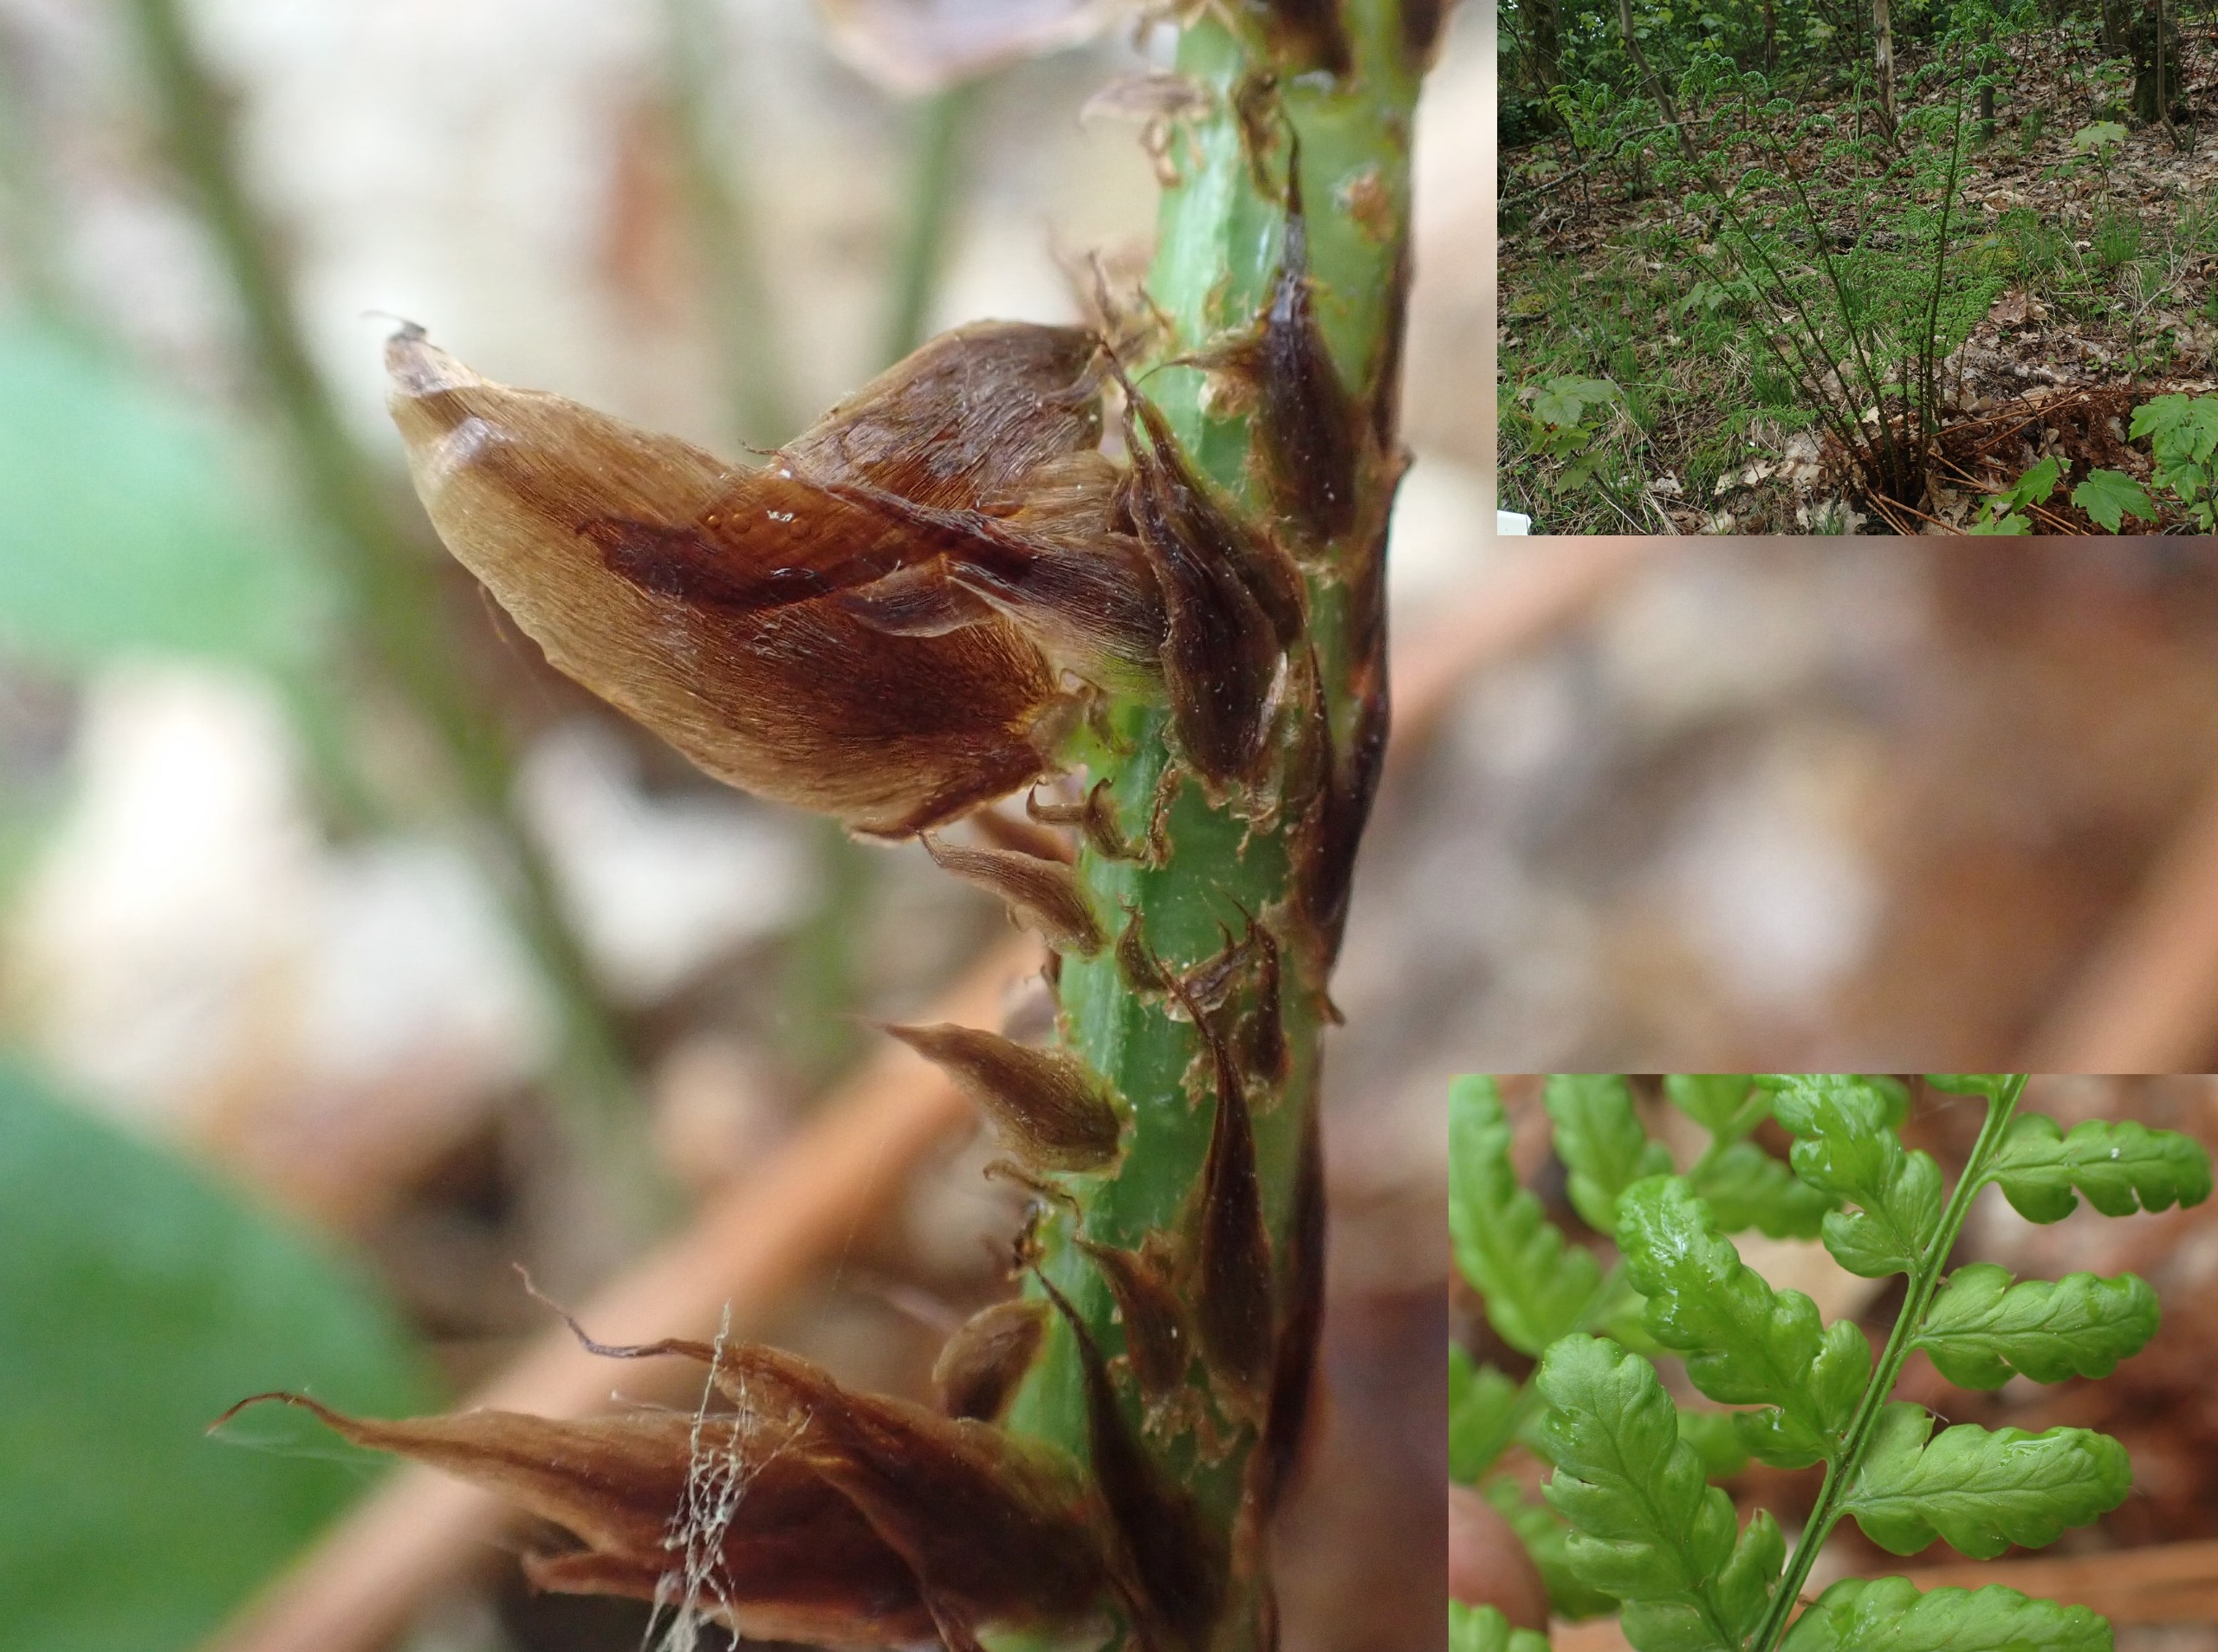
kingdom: Plantae
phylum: Tracheophyta
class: Polypodiopsida
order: Polypodiales
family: Dryopteridaceae
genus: Dryopteris
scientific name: Dryopteris dilatata
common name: Bredbladet mangeløv
